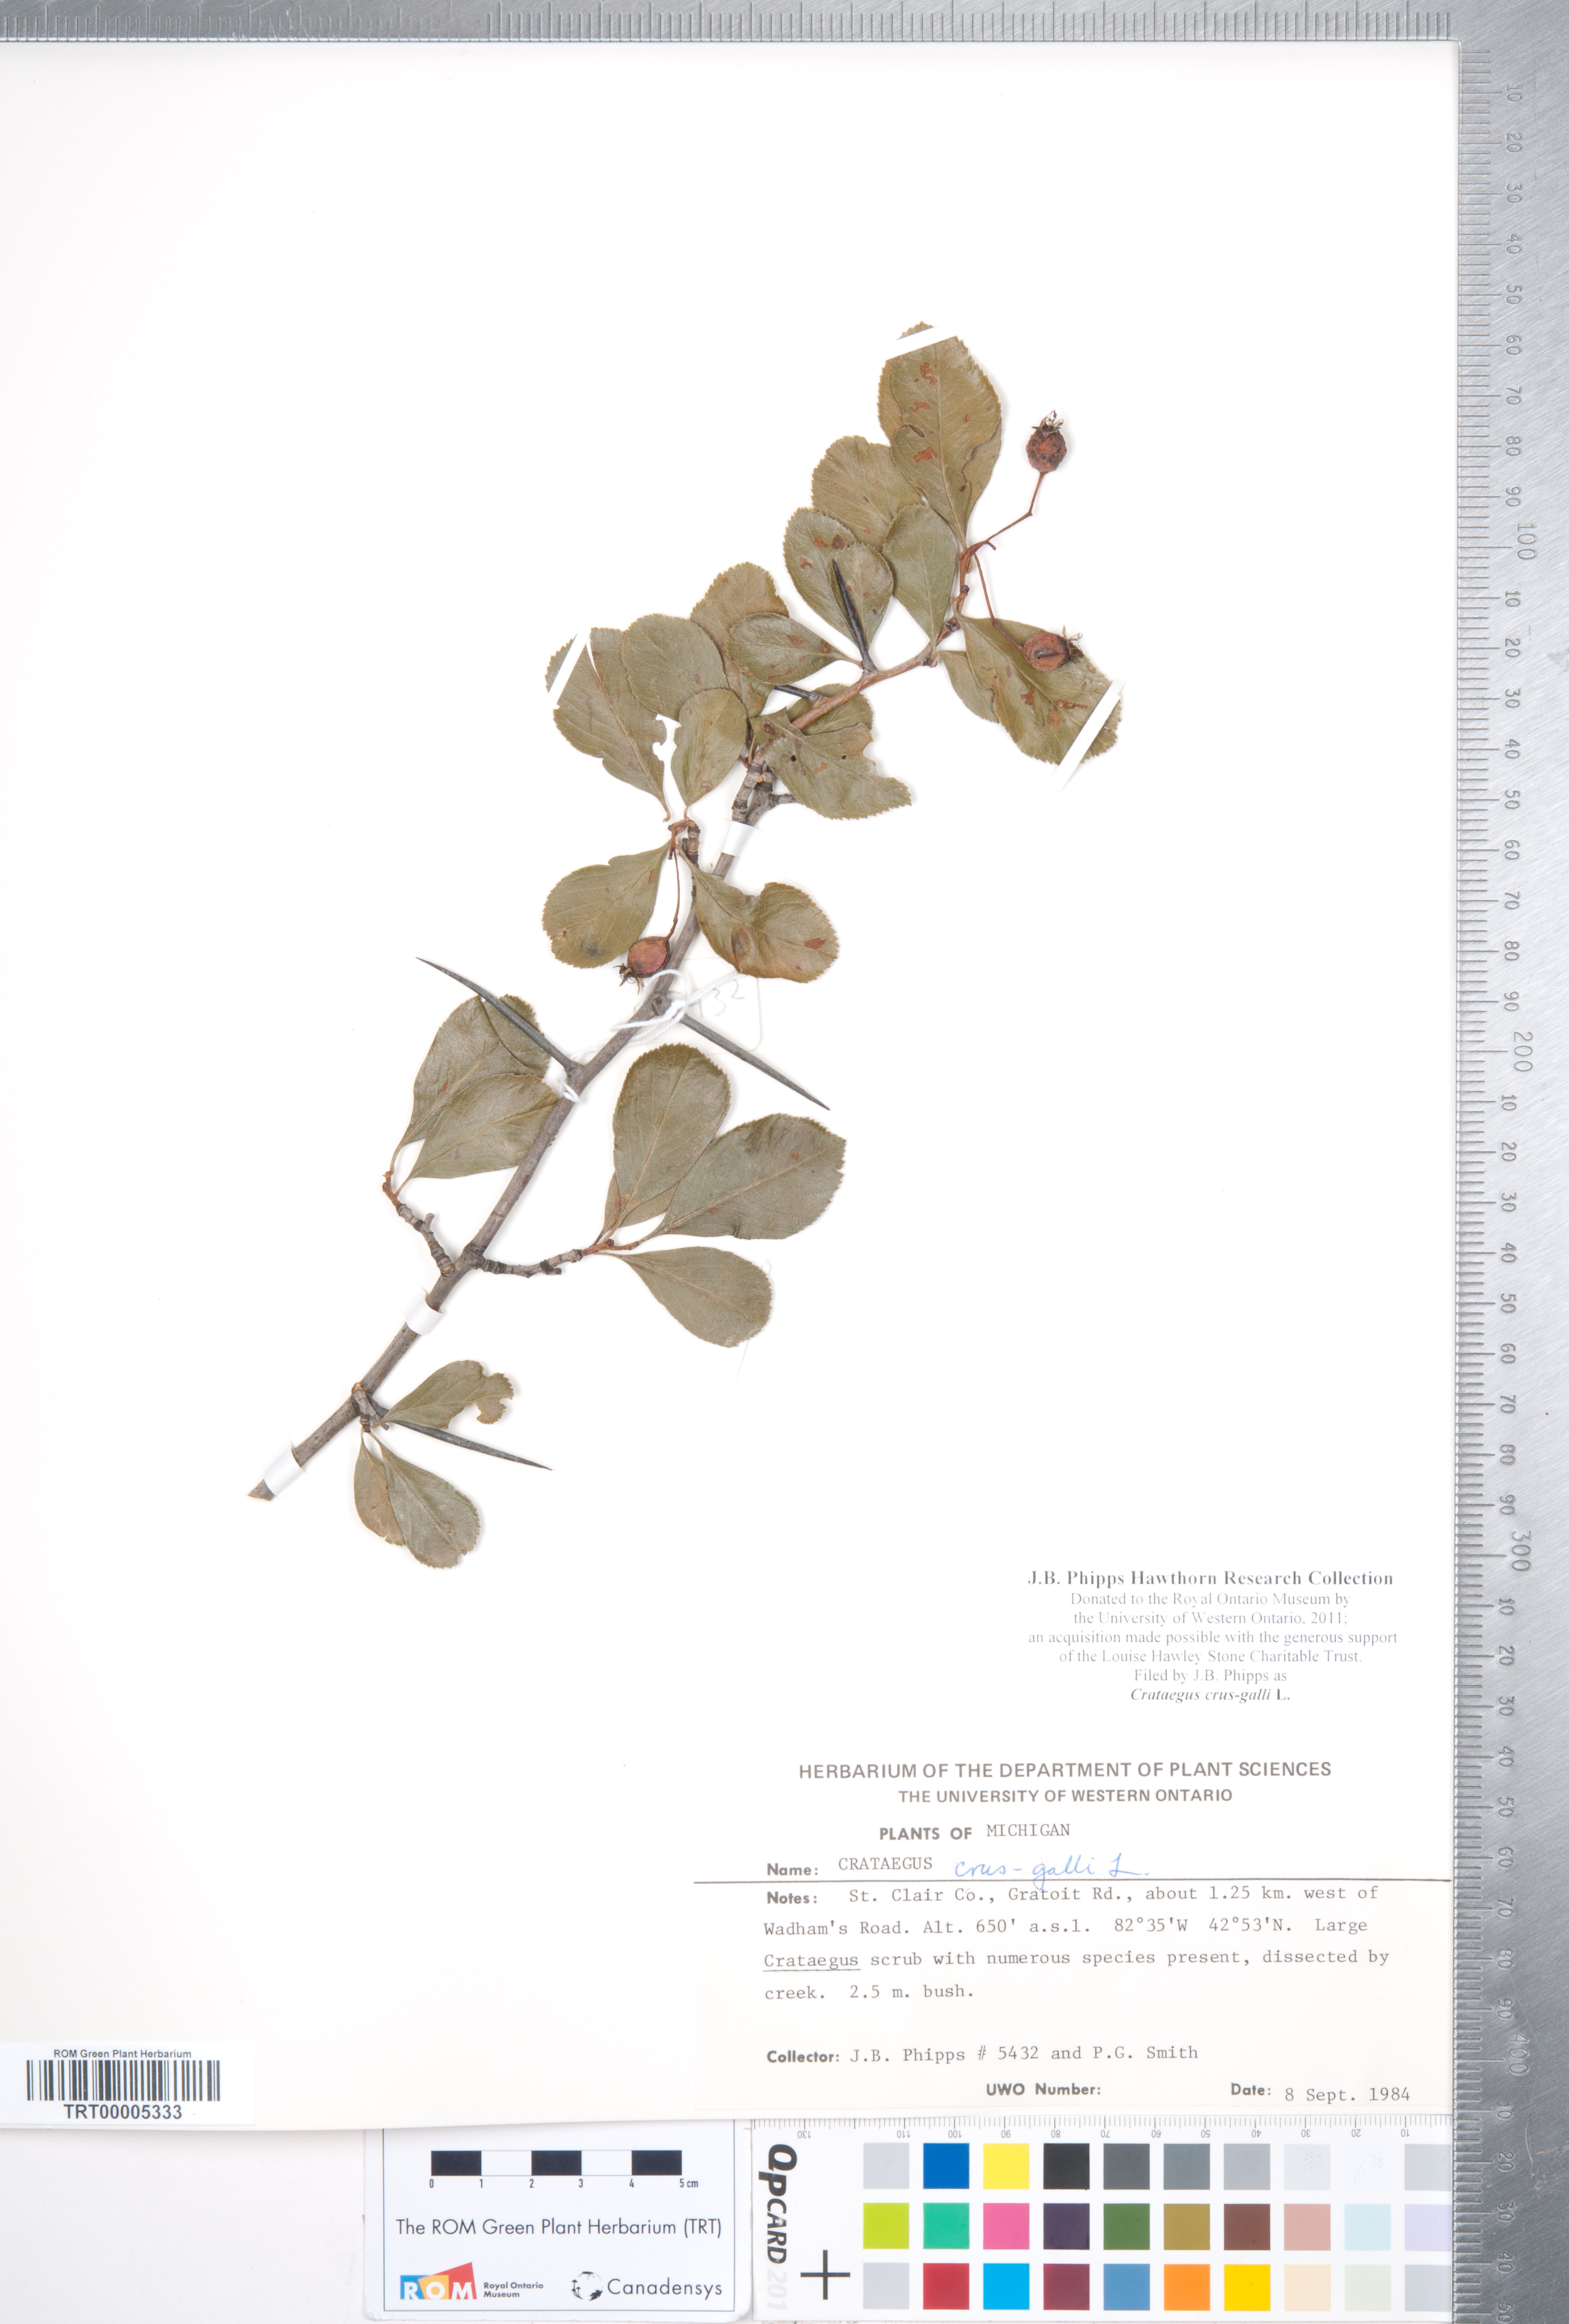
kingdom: Plantae
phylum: Tracheophyta
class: Magnoliopsida
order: Rosales
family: Rosaceae
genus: Crataegus
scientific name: Crataegus crus-galli
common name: Cockspurthorn
